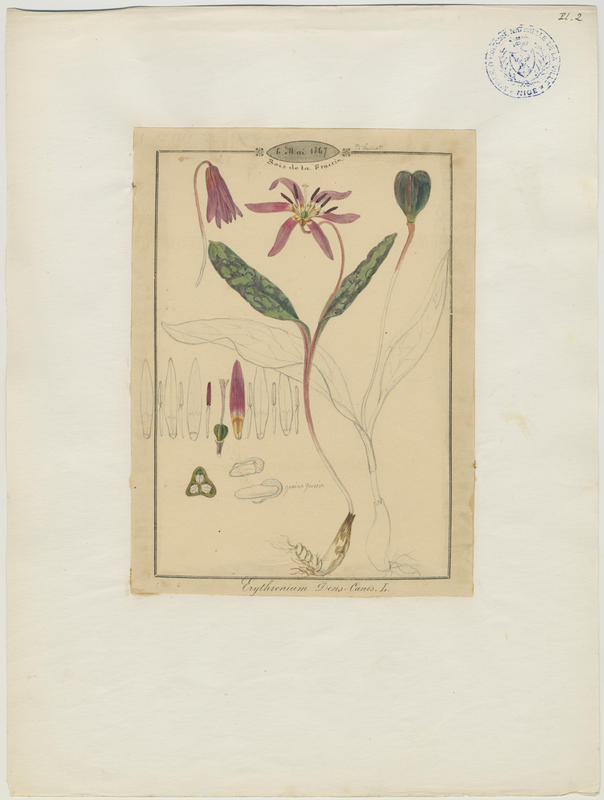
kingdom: Plantae
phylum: Tracheophyta
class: Liliopsida
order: Liliales
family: Liliaceae
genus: Erythronium
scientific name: Erythronium dens-canis
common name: Dog's-tooth-violet
